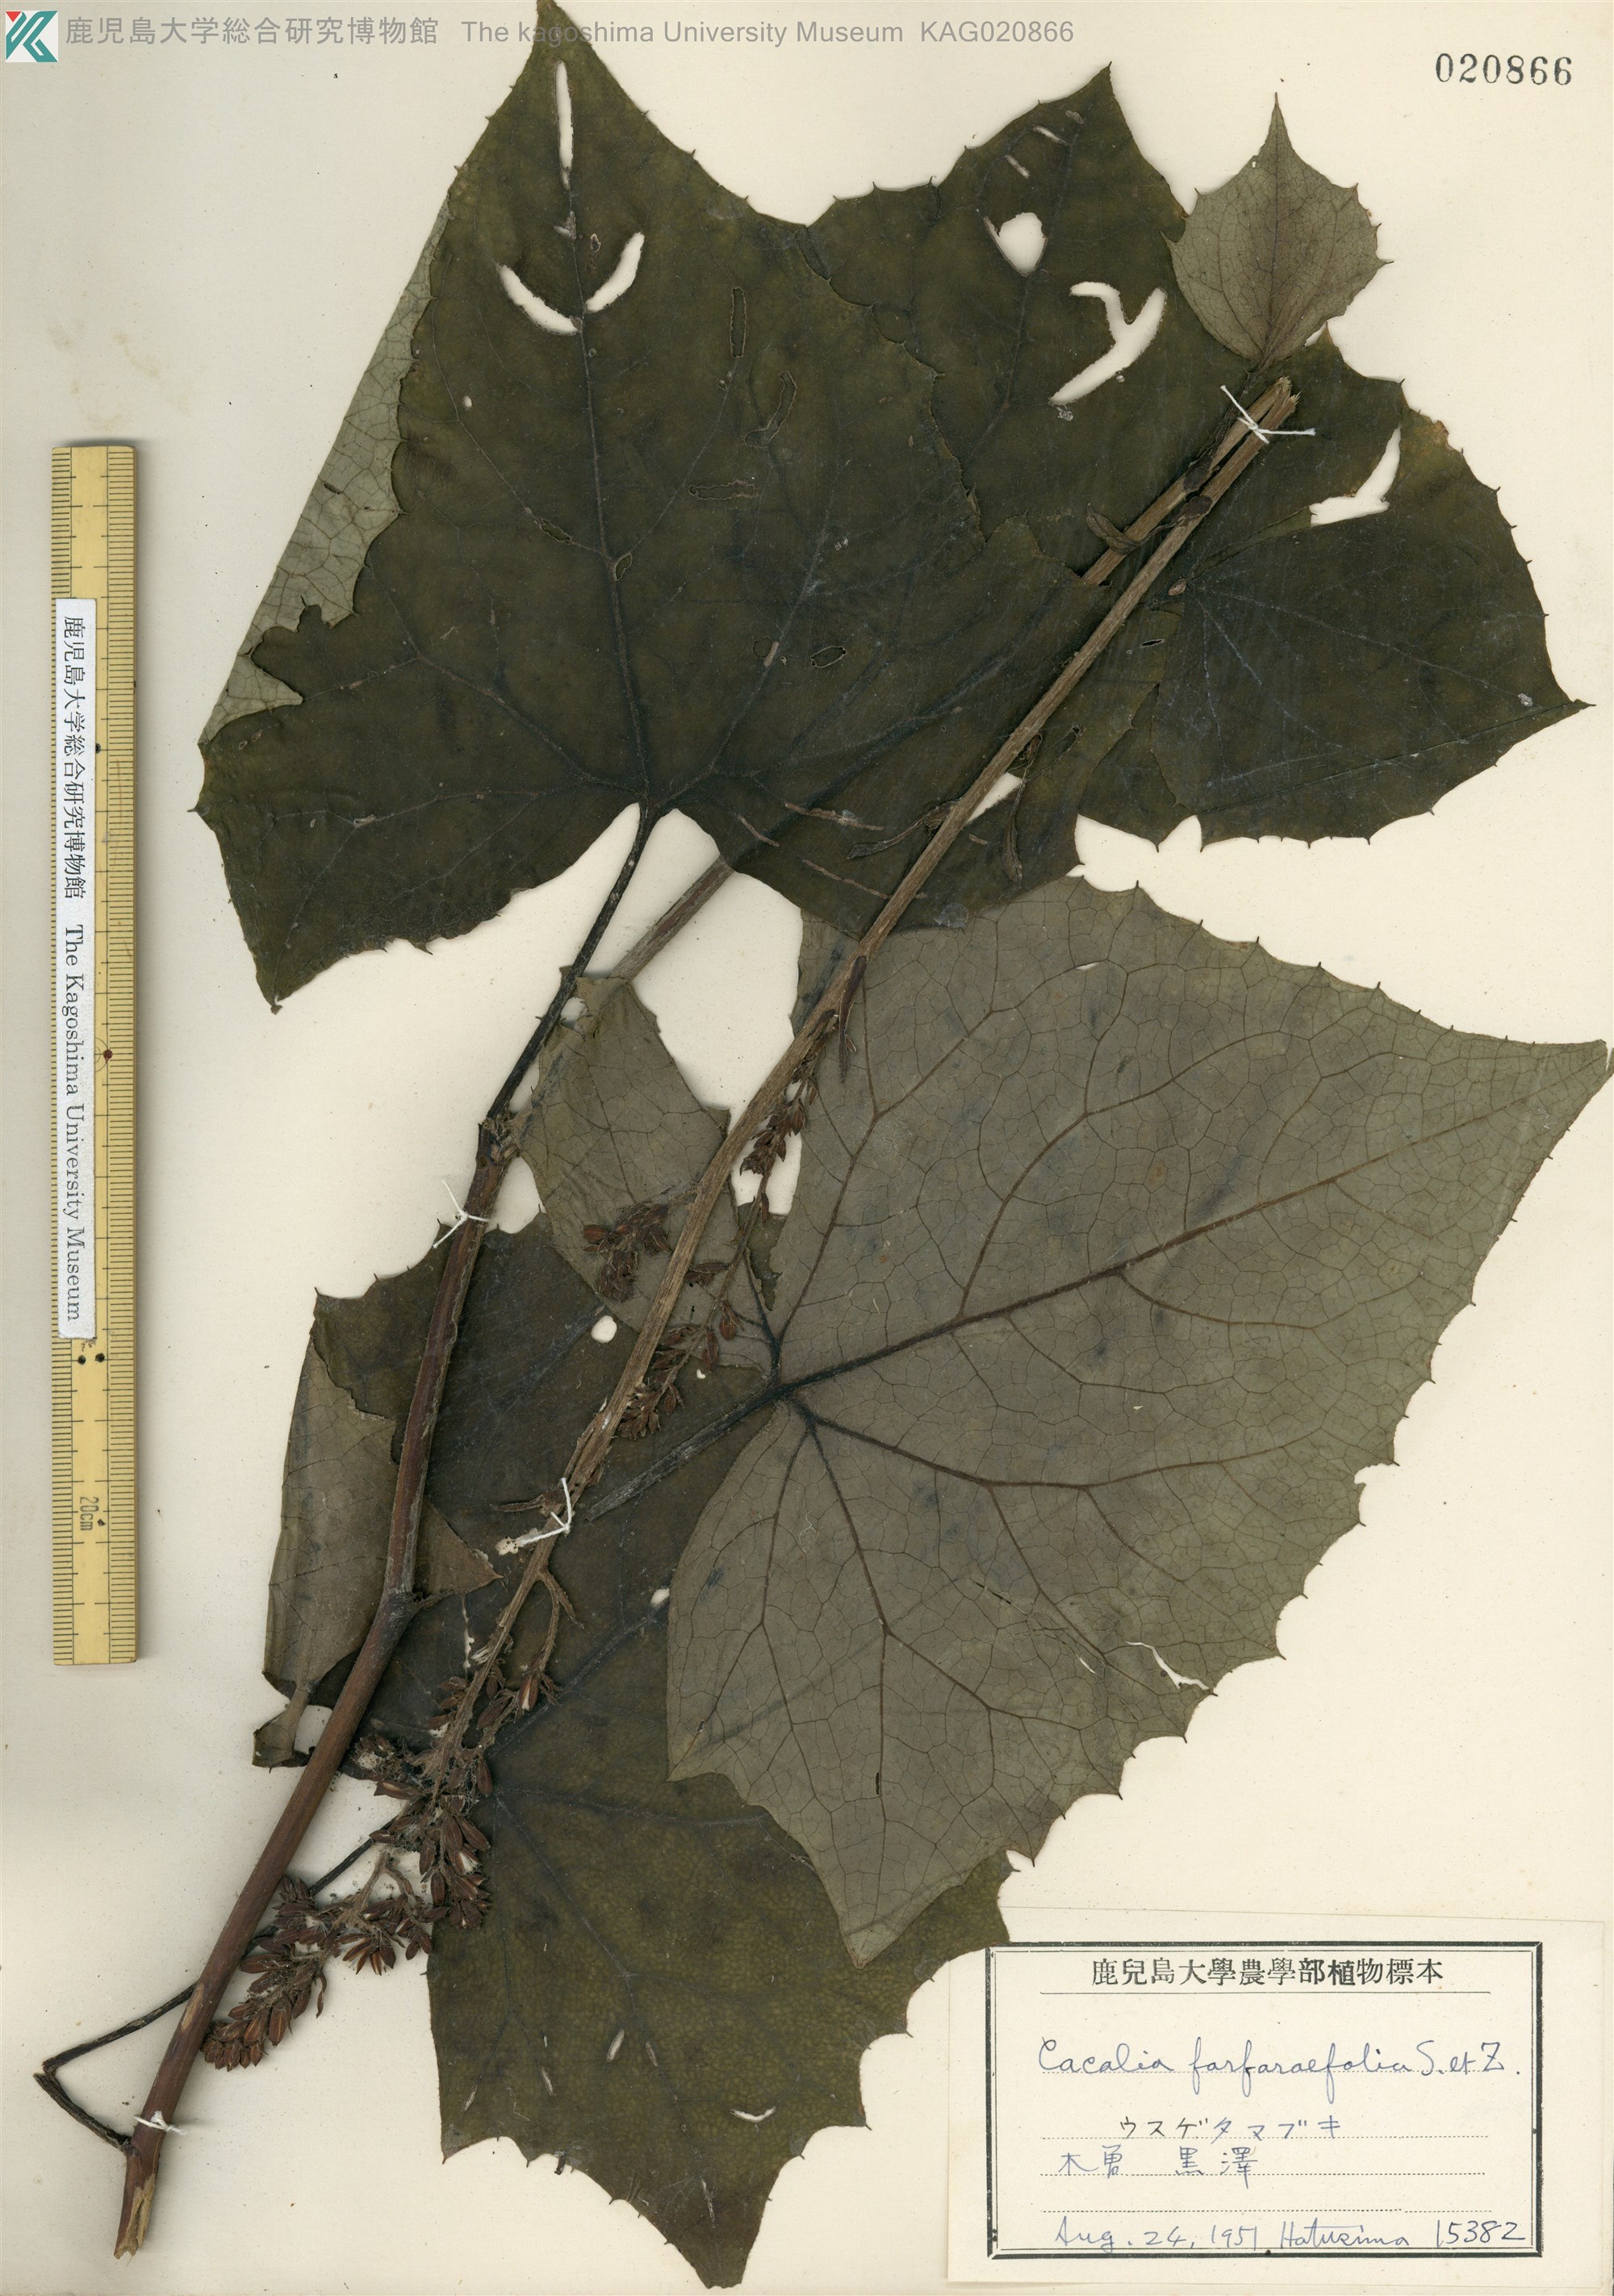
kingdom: Plantae
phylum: Tracheophyta
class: Magnoliopsida
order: Asterales
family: Asteraceae
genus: Parasenecio
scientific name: Parasenecio farfarifolius
